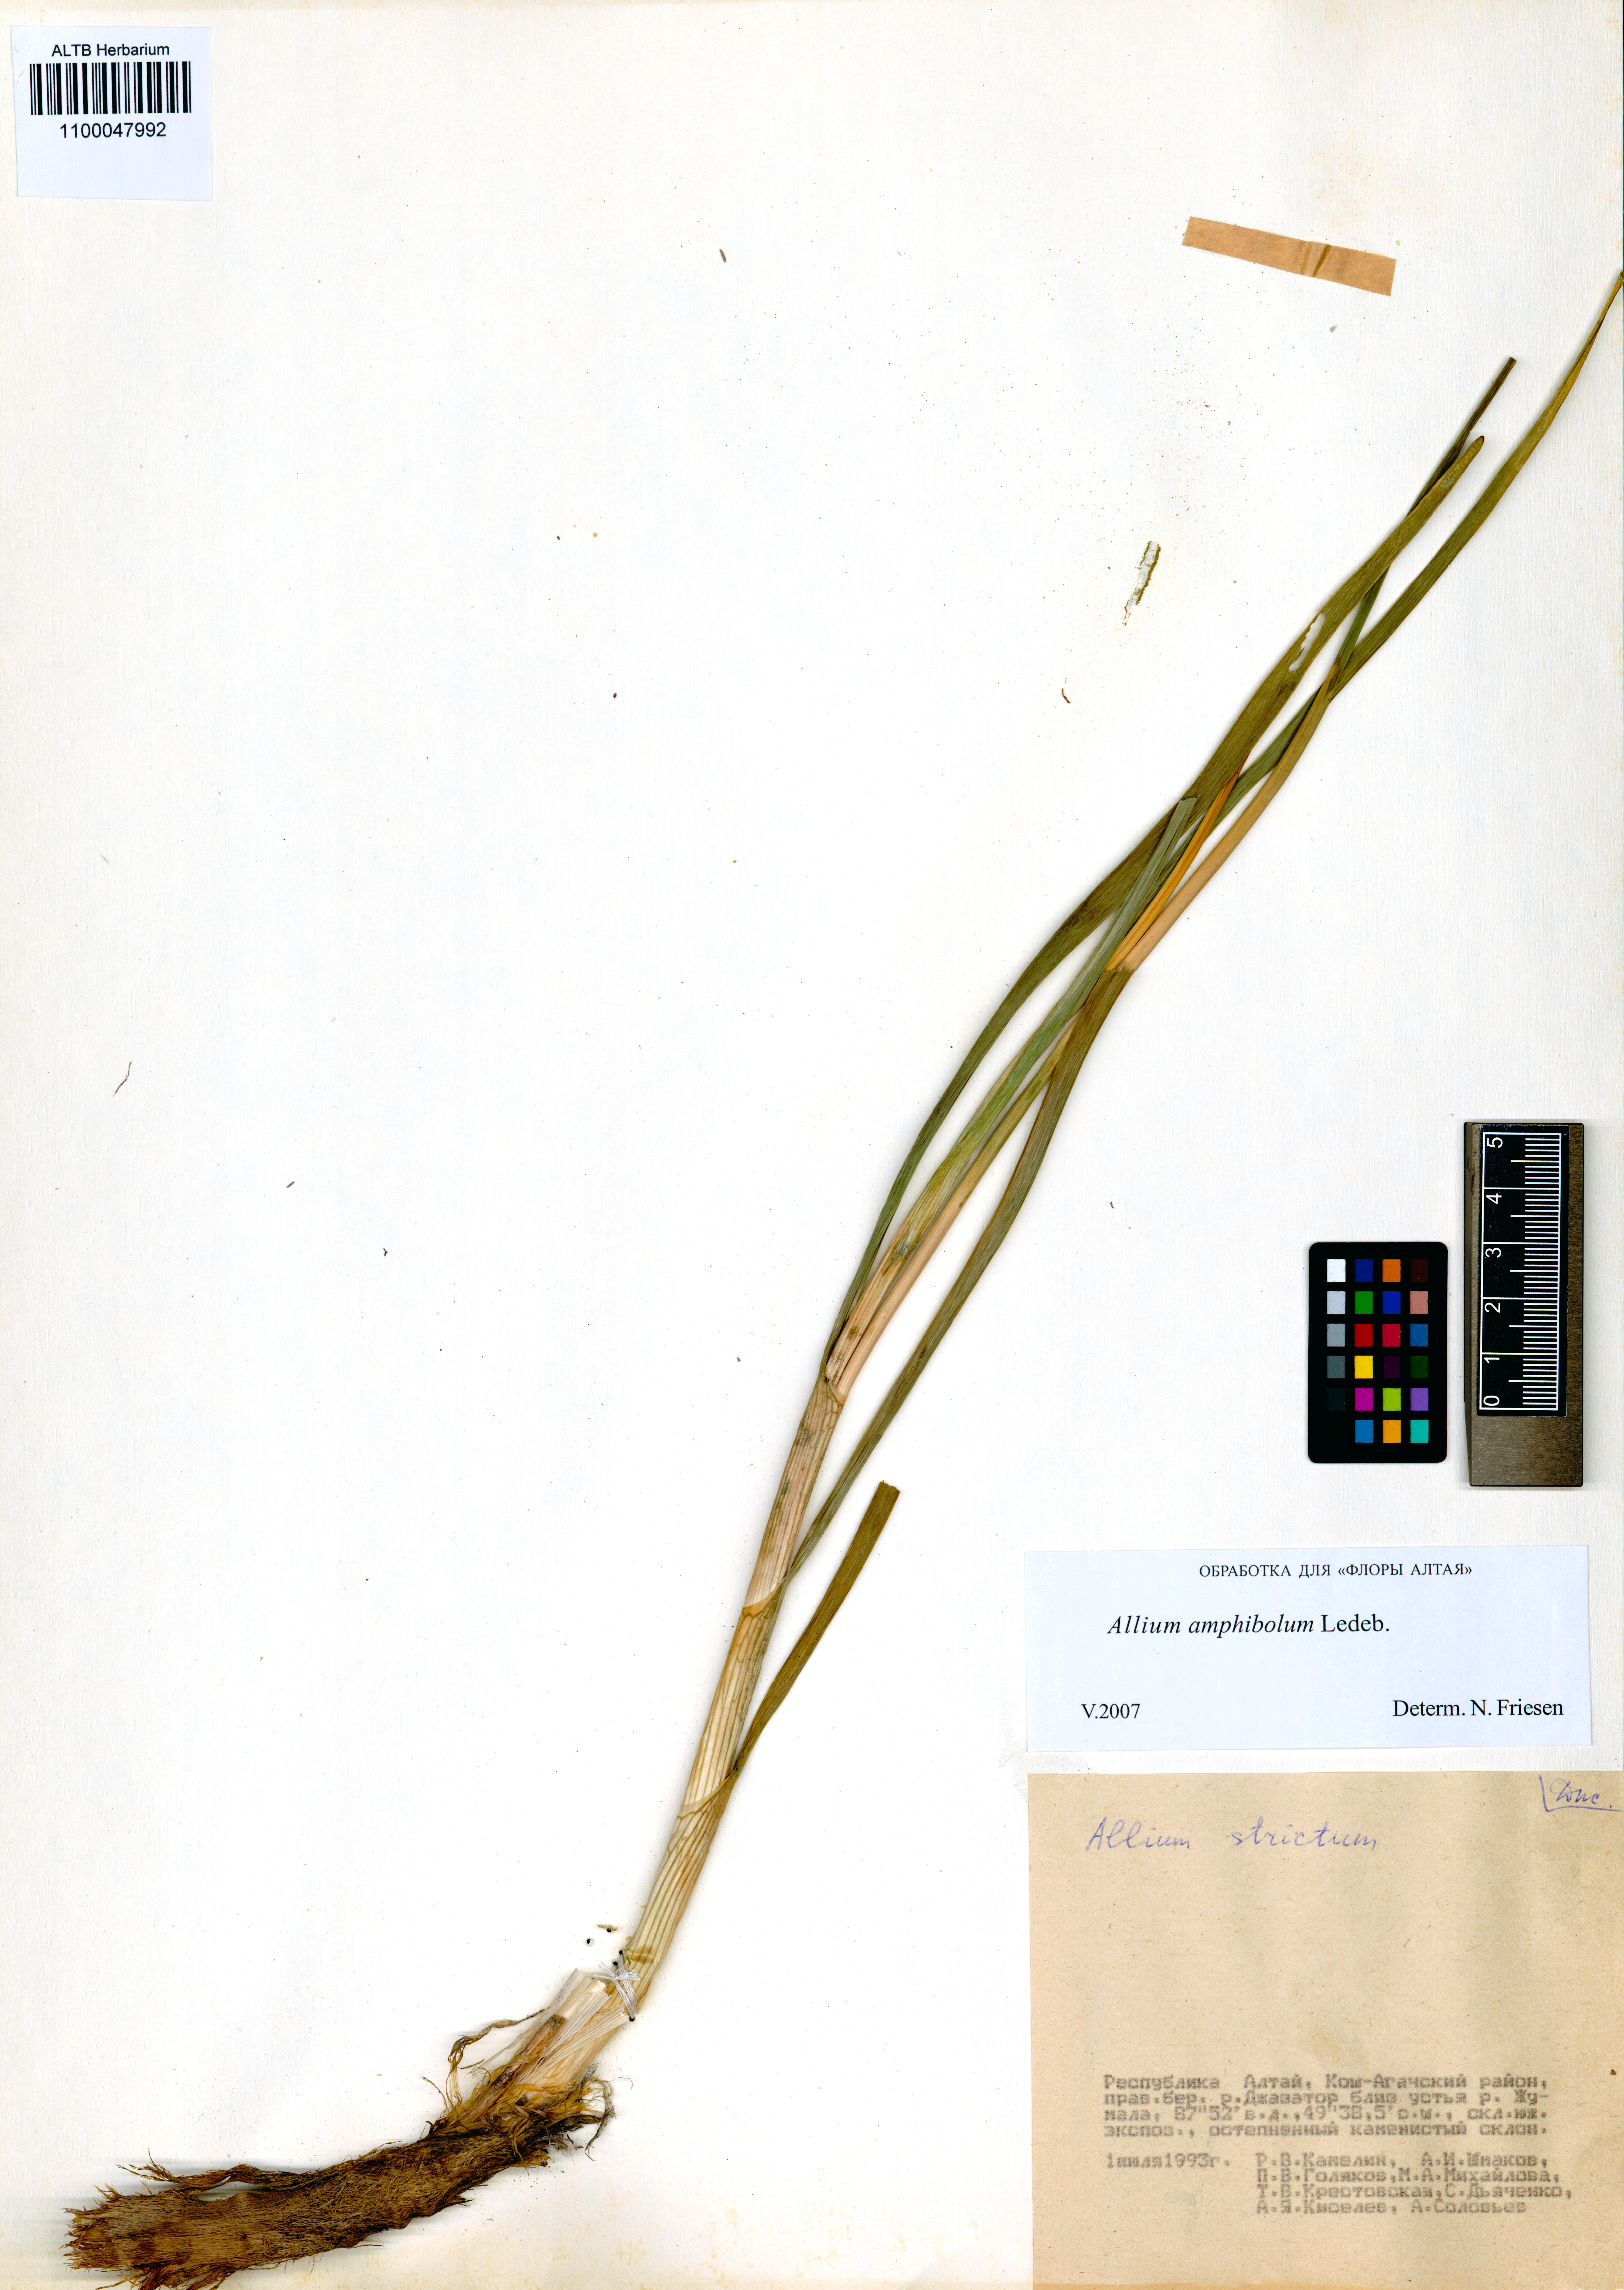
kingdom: Plantae
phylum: Tracheophyta
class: Liliopsida
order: Asparagales
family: Amaryllidaceae
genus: Allium
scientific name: Allium amphibolum
